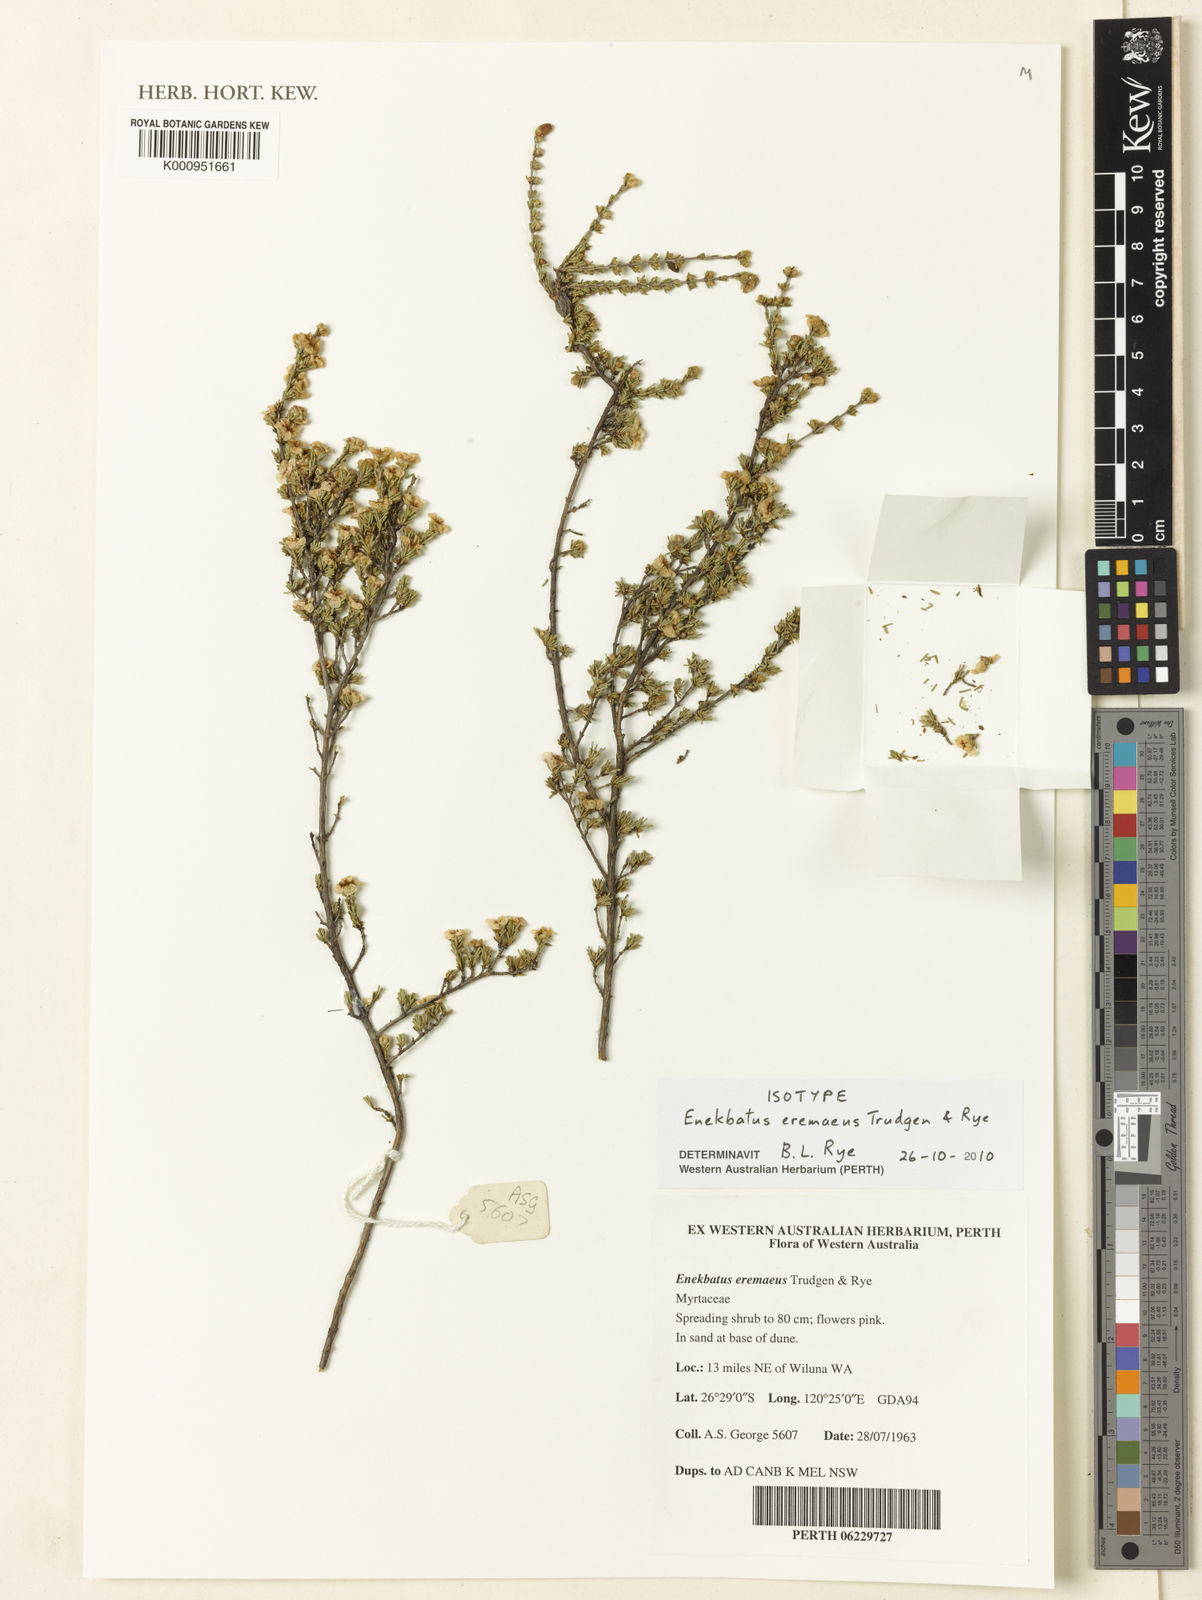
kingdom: Plantae
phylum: Tracheophyta
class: Magnoliopsida
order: Myrtales
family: Myrtaceae
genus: Enekbatus
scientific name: Enekbatus eremaeus
